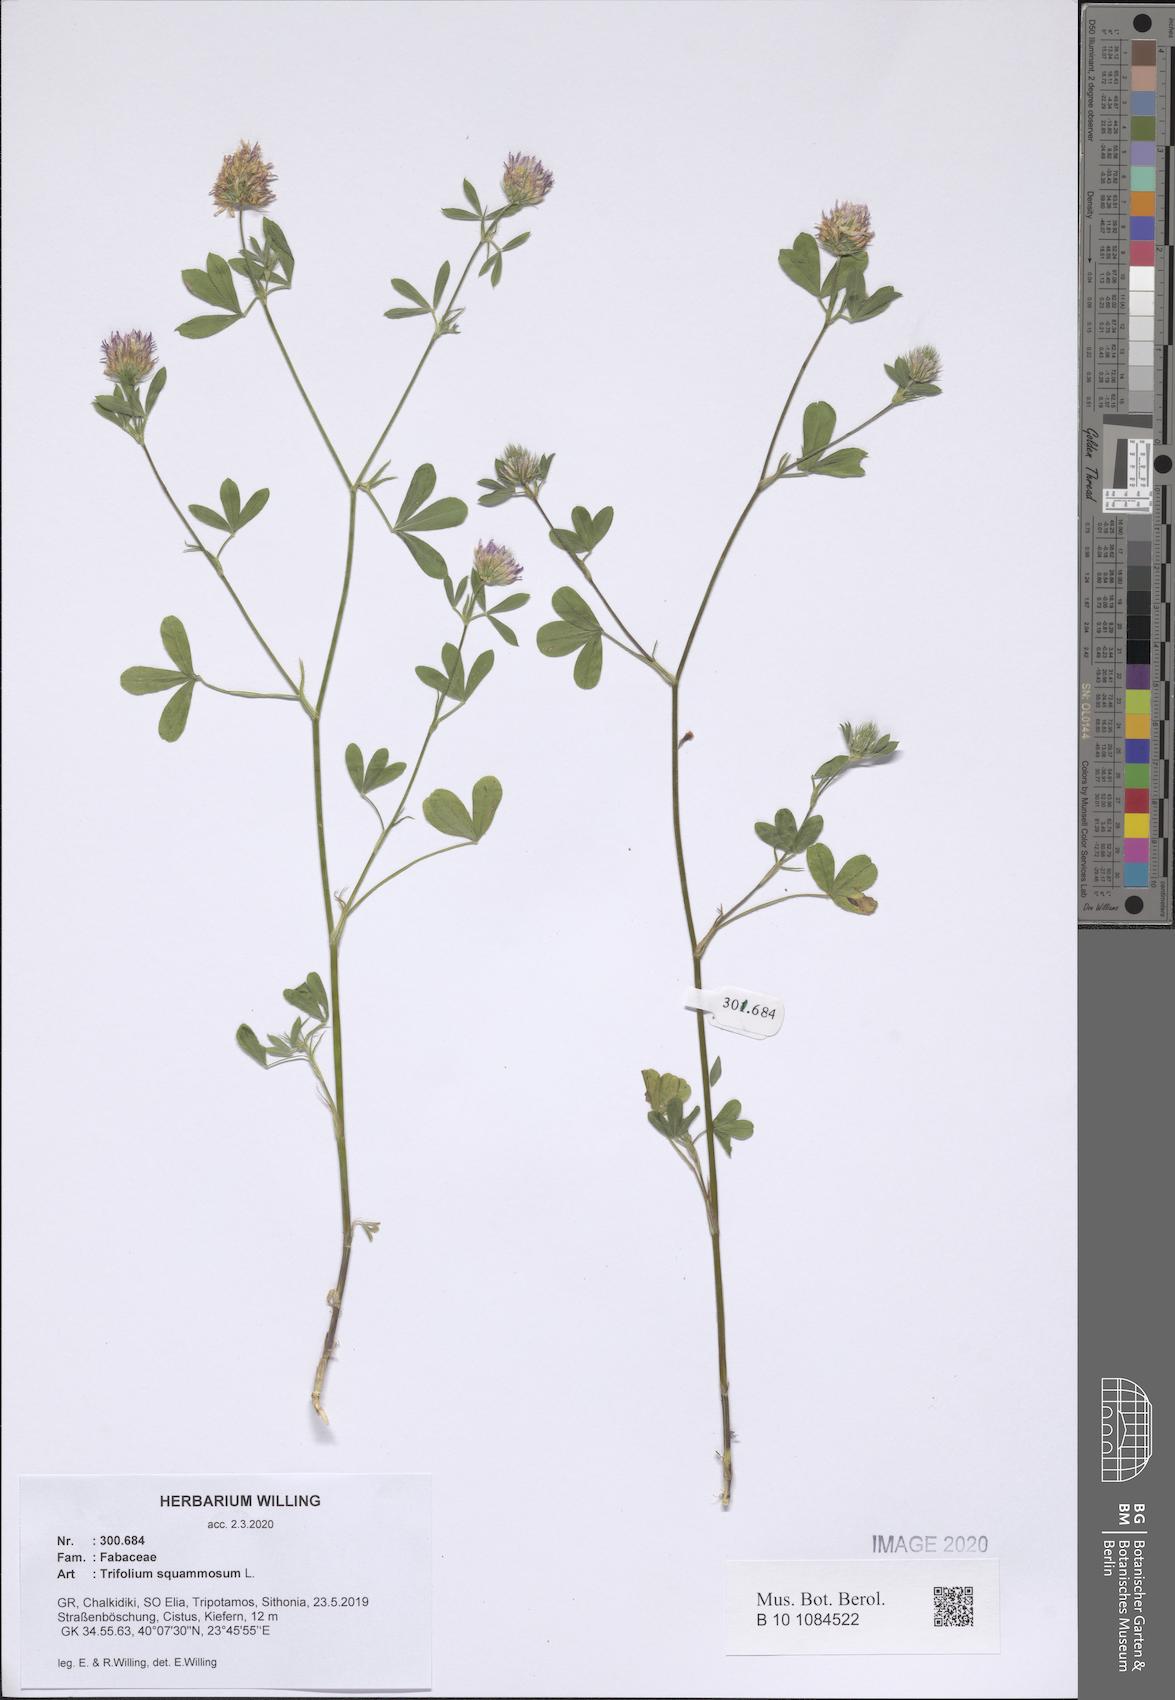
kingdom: Plantae
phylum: Tracheophyta
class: Magnoliopsida
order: Fabales
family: Fabaceae
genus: Trifolium
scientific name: Trifolium squamosum
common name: Sea clover
